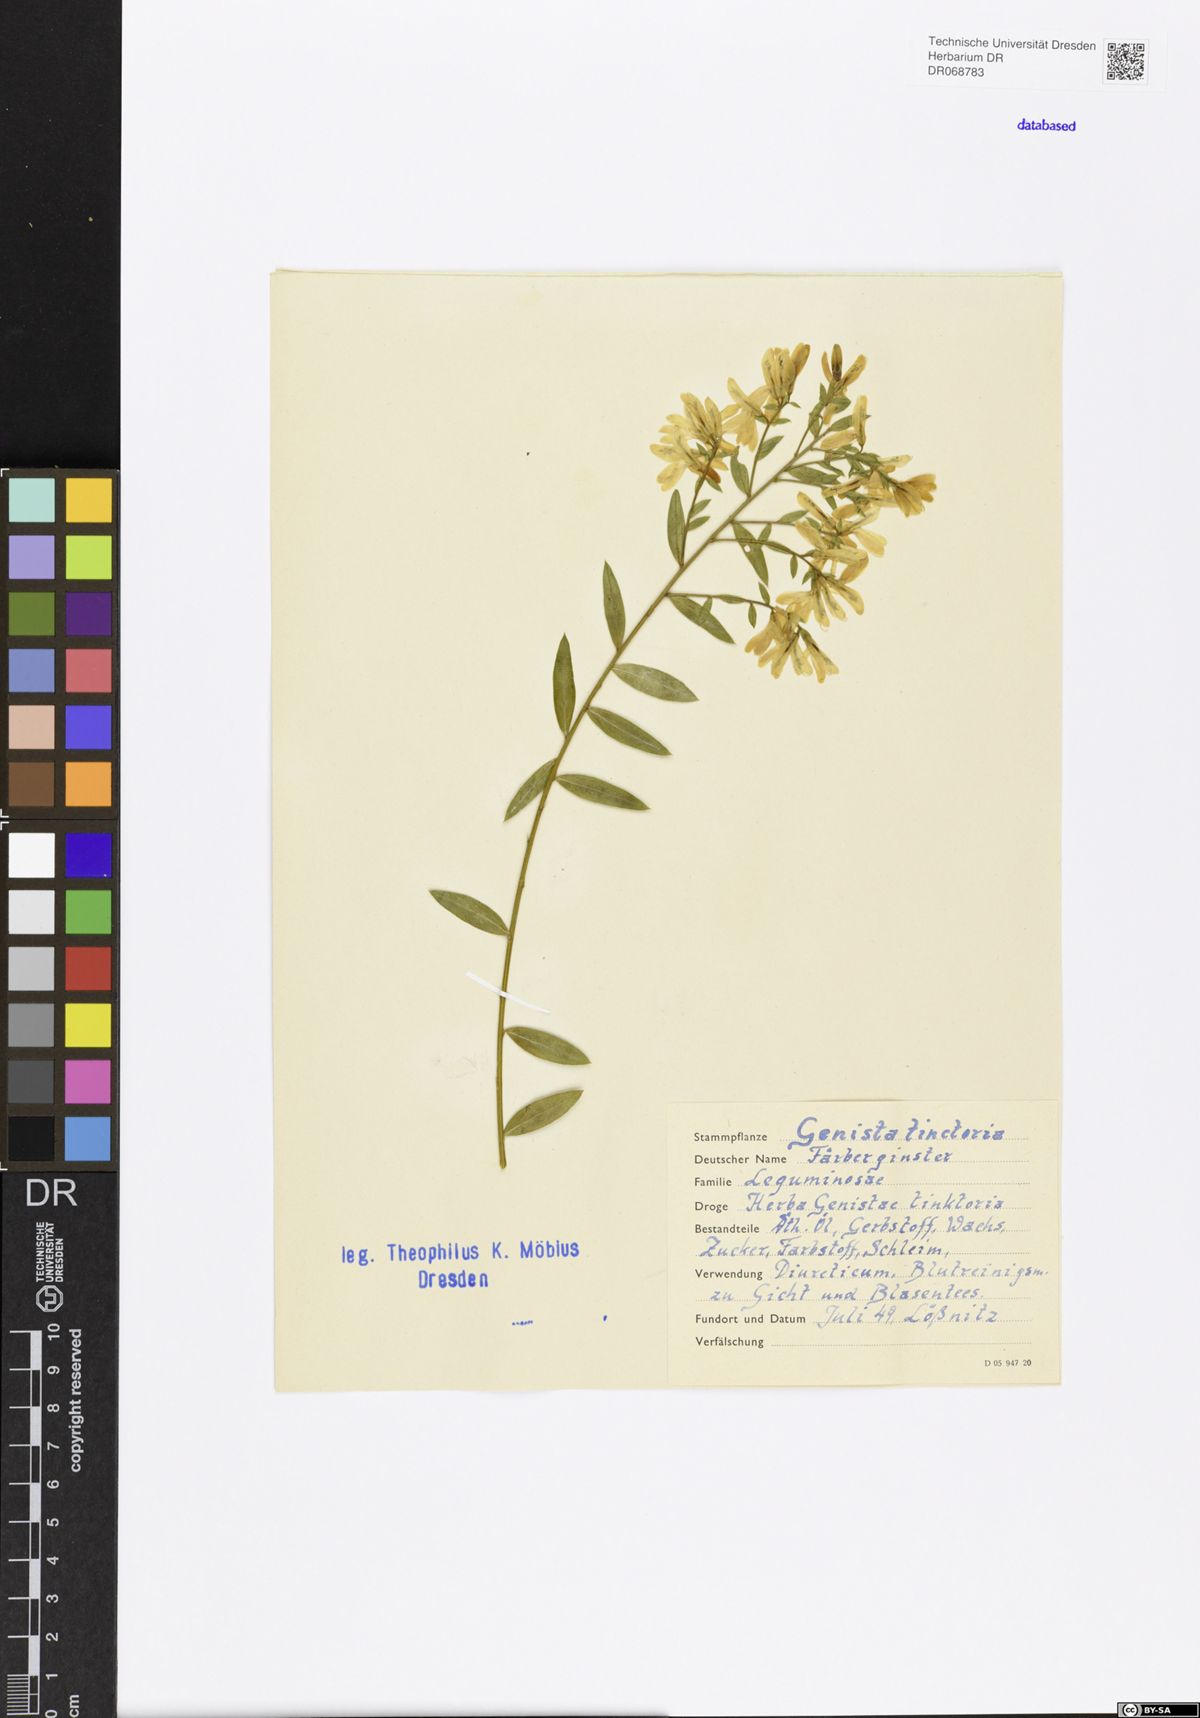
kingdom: Plantae
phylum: Tracheophyta
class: Magnoliopsida
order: Fabales
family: Fabaceae
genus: Genista
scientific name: Genista tinctoria
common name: Dyer's greenweed
